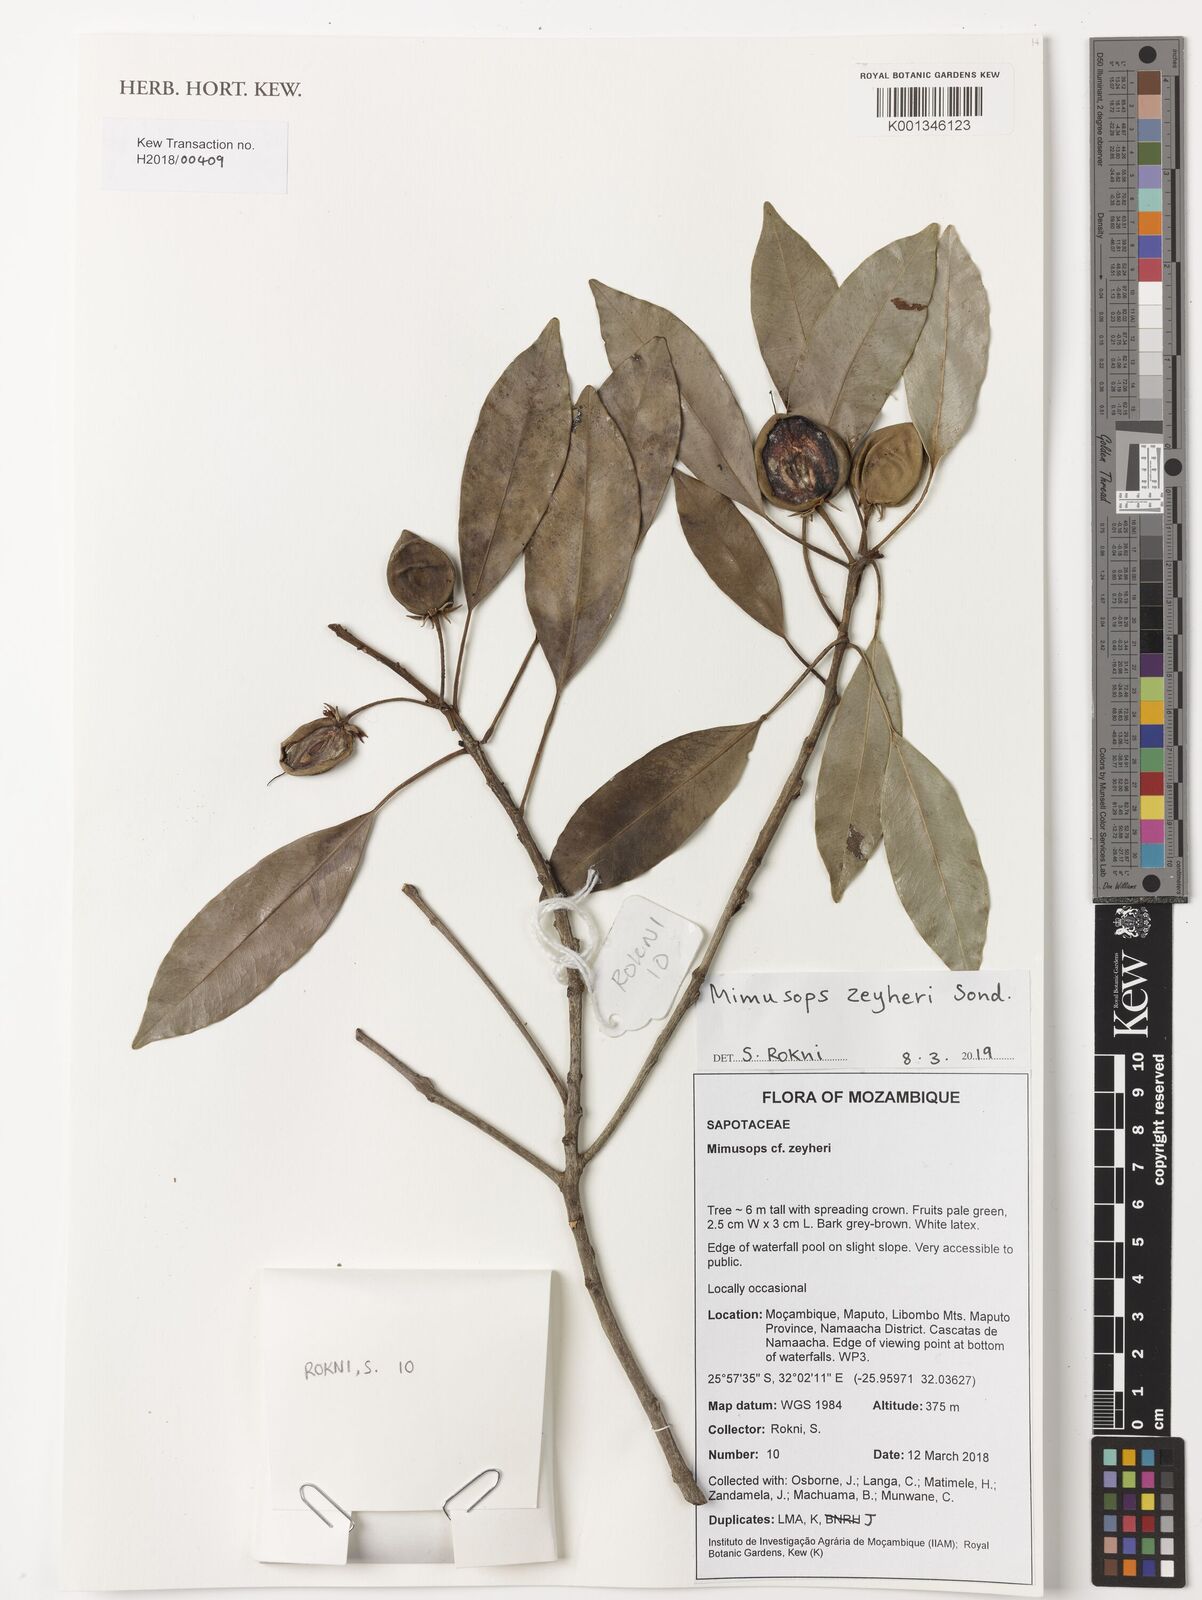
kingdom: Plantae
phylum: Tracheophyta
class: Magnoliopsida
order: Ericales
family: Sapotaceae
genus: Mimusops
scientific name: Mimusops zeyheri
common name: Transvaal red milkwood
